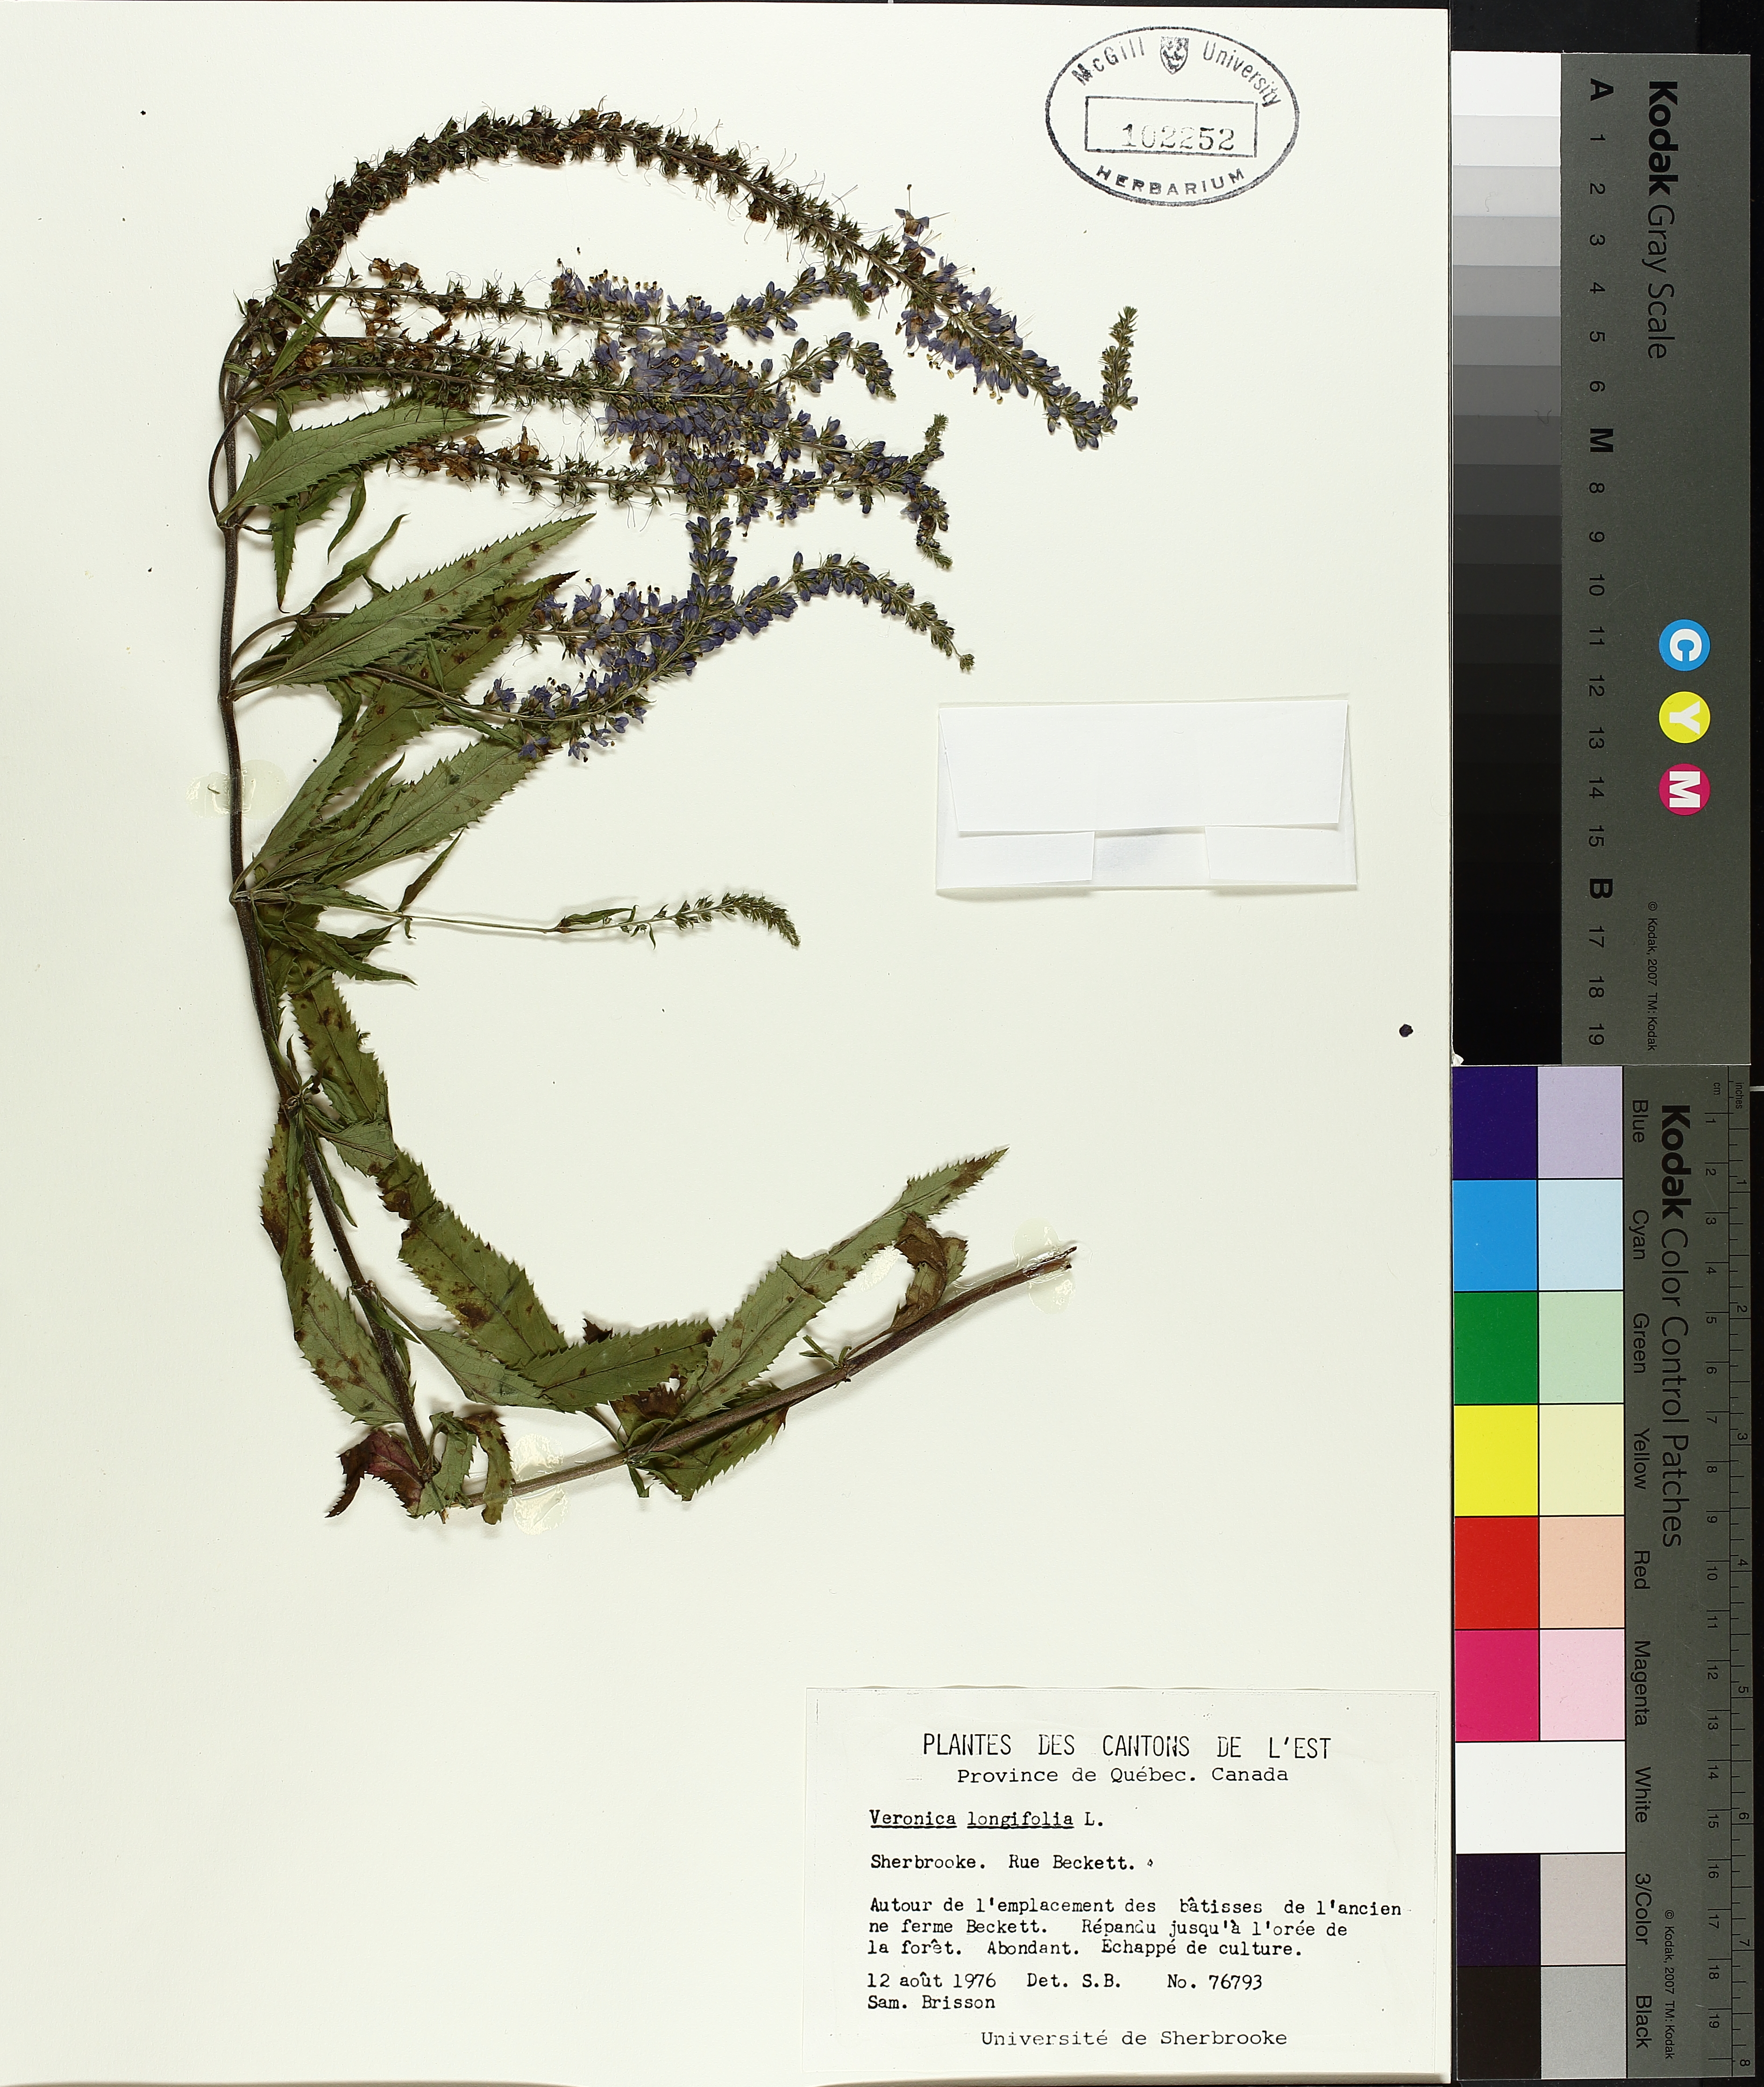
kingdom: Plantae
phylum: Tracheophyta
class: Liliopsida
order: Poales
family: Cyperaceae
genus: Carex
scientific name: Carex abrupta
